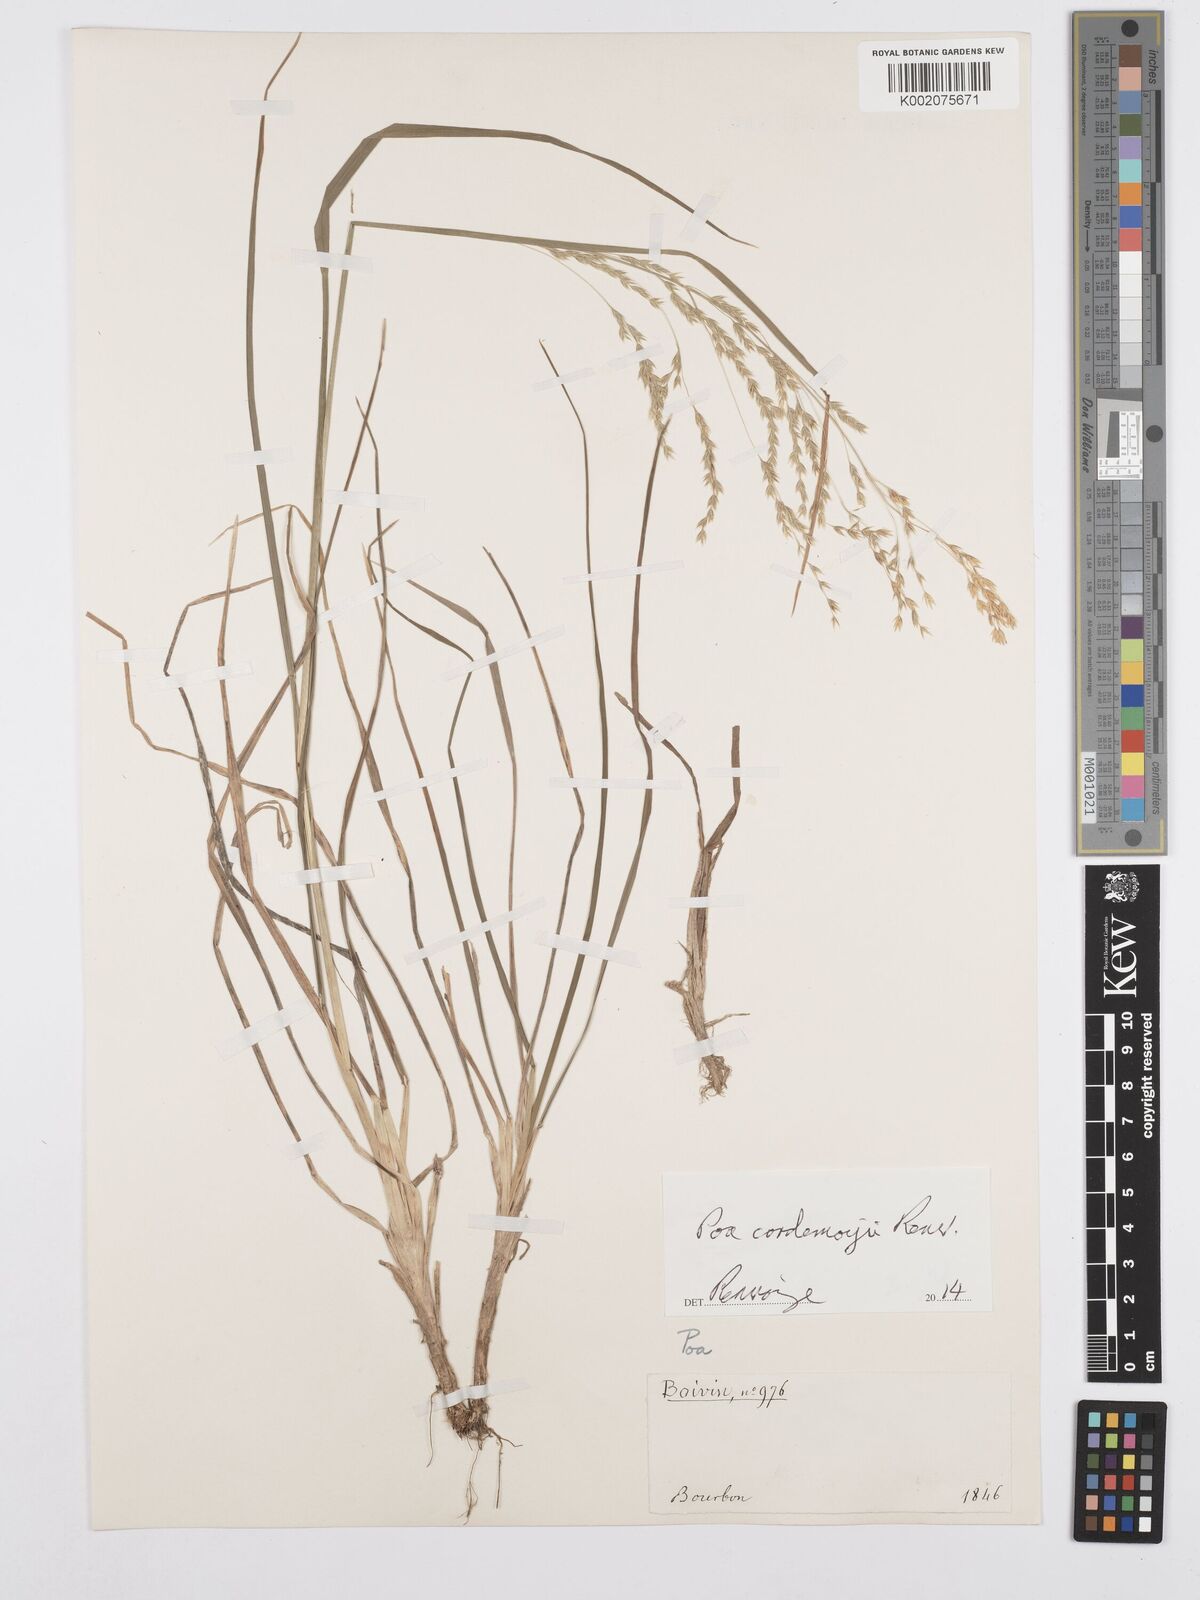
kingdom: Plantae
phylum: Tracheophyta
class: Liliopsida
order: Poales
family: Poaceae
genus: Poa
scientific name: Poa cordemoyi
